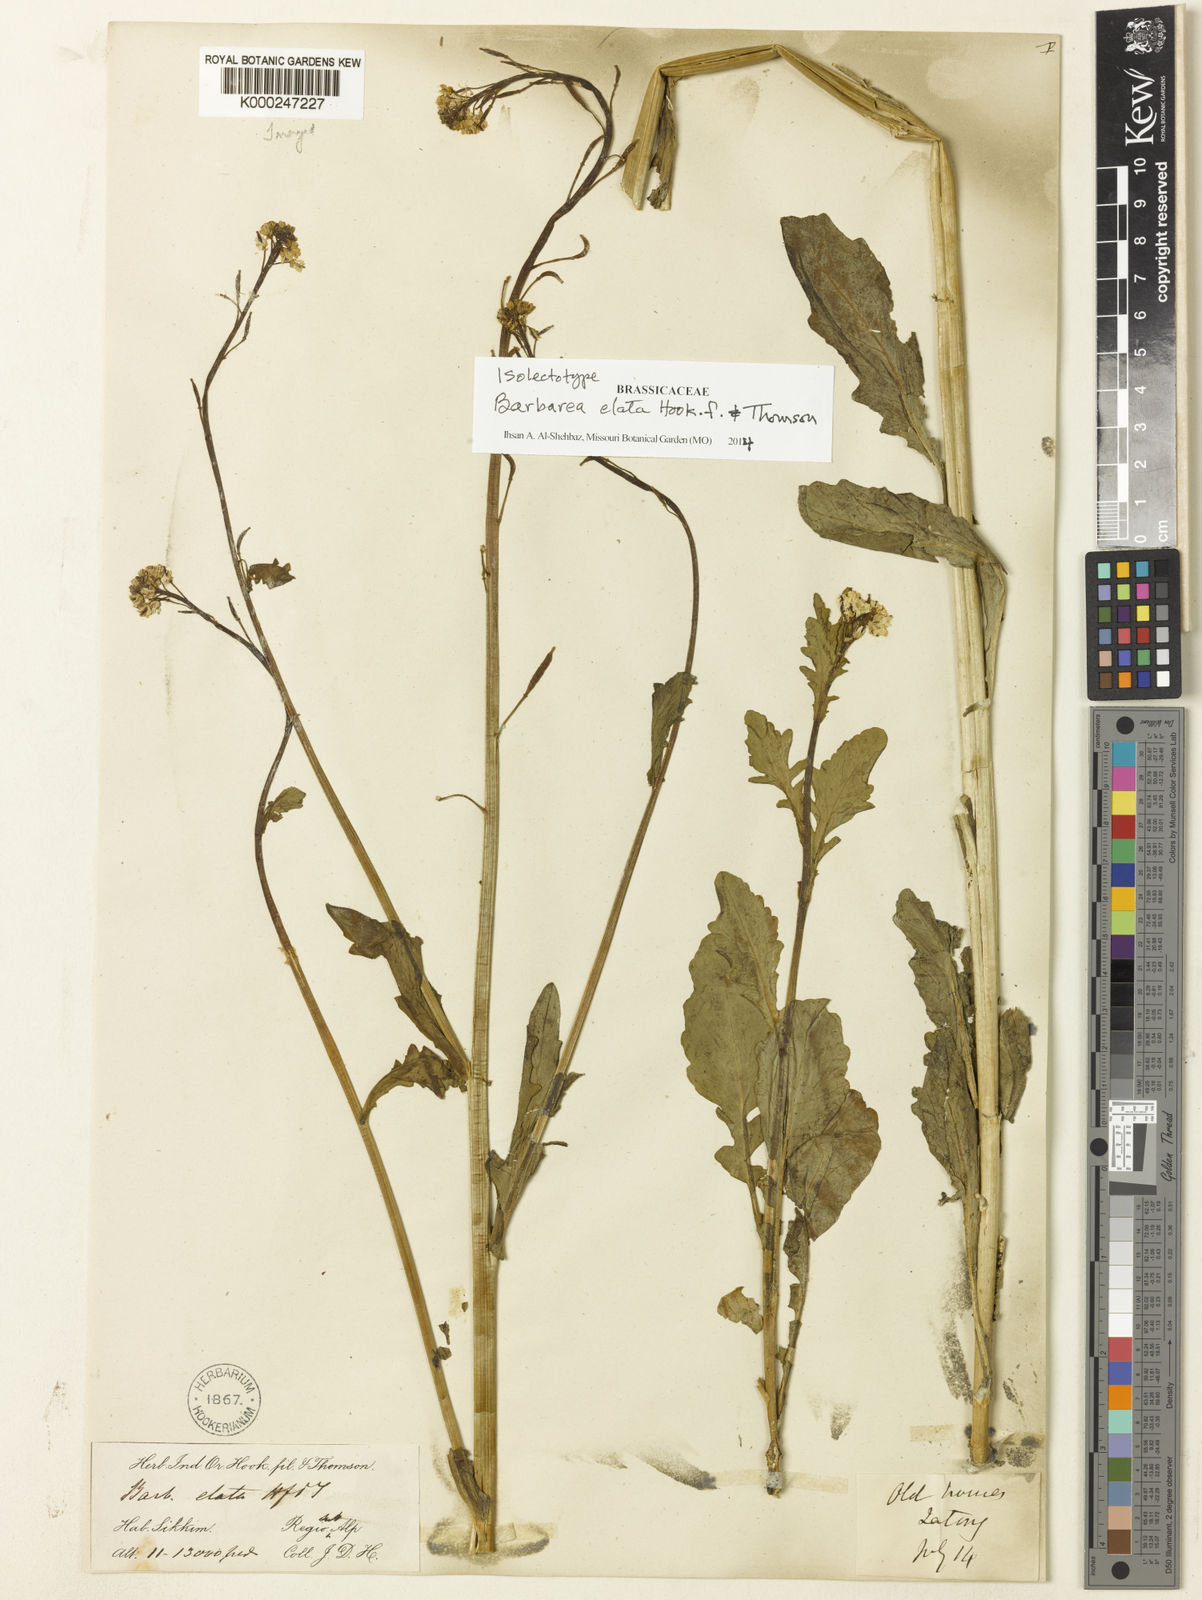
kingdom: Plantae
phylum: Tracheophyta
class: Magnoliopsida
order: Brassicales
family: Brassicaceae
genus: Rorippa
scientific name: Rorippa elata
